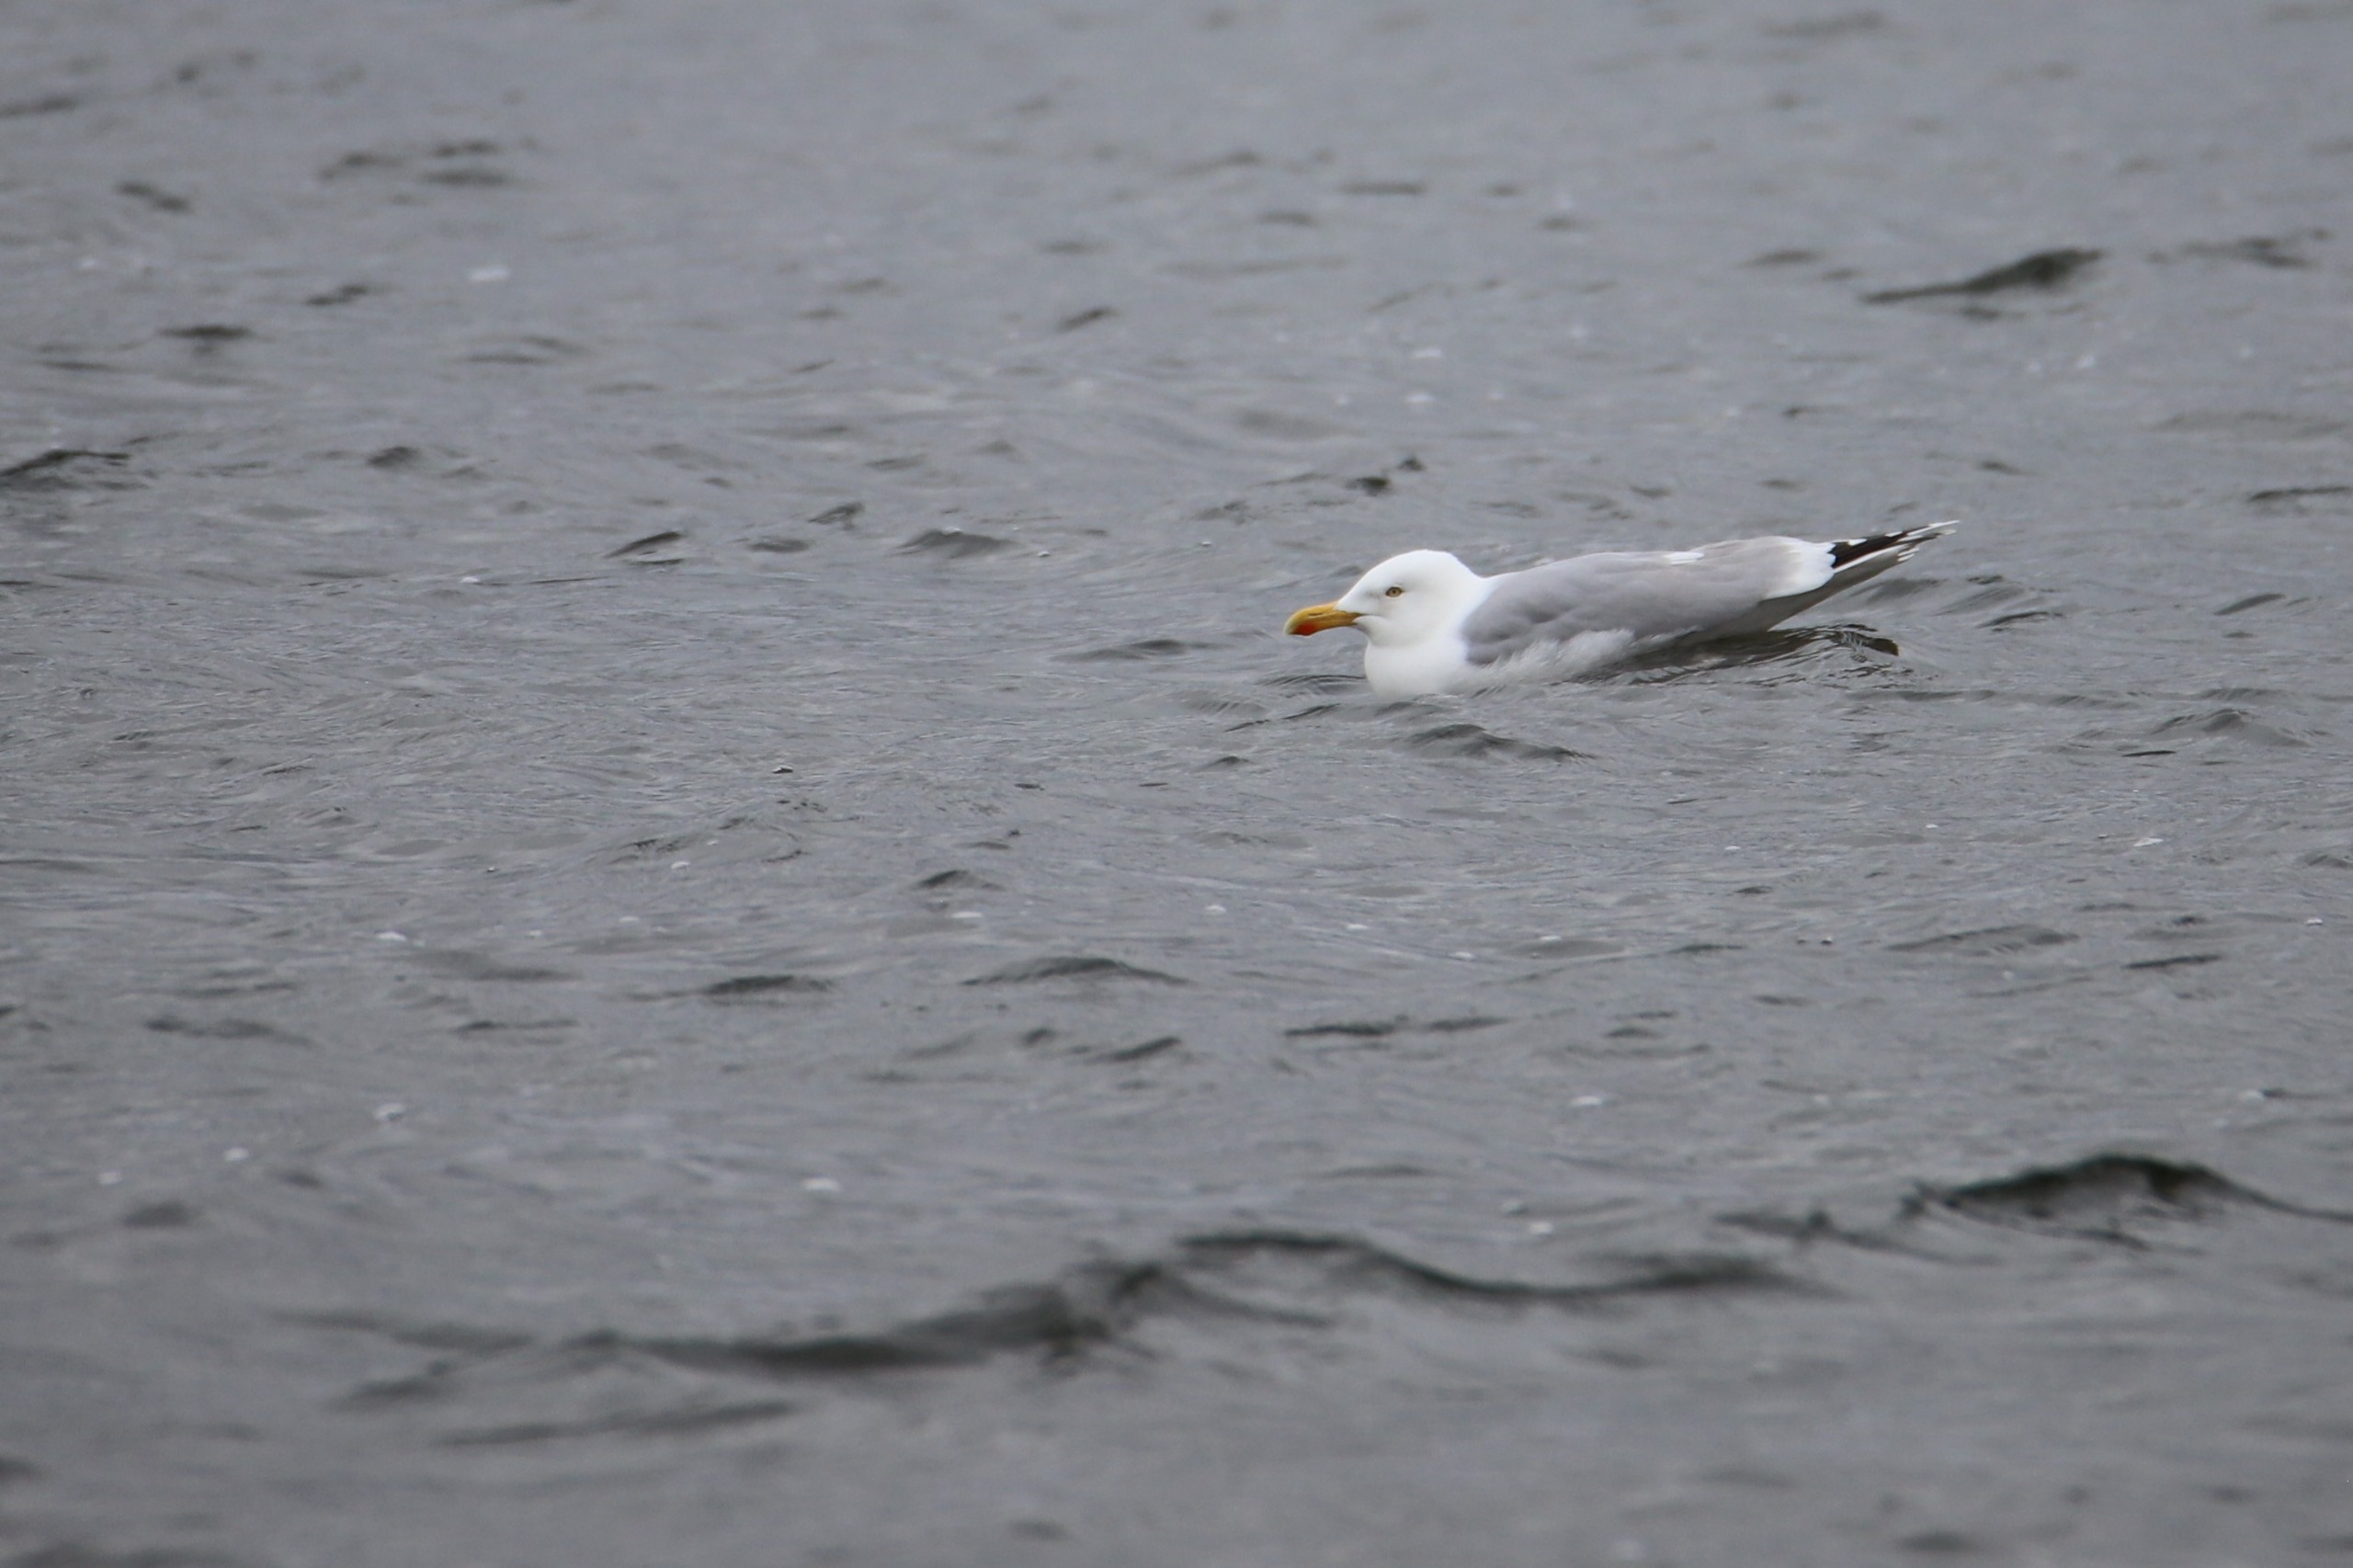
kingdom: Animalia
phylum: Chordata
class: Aves
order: Charadriiformes
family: Laridae
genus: Larus
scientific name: Larus argentatus
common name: Sølvmåge
